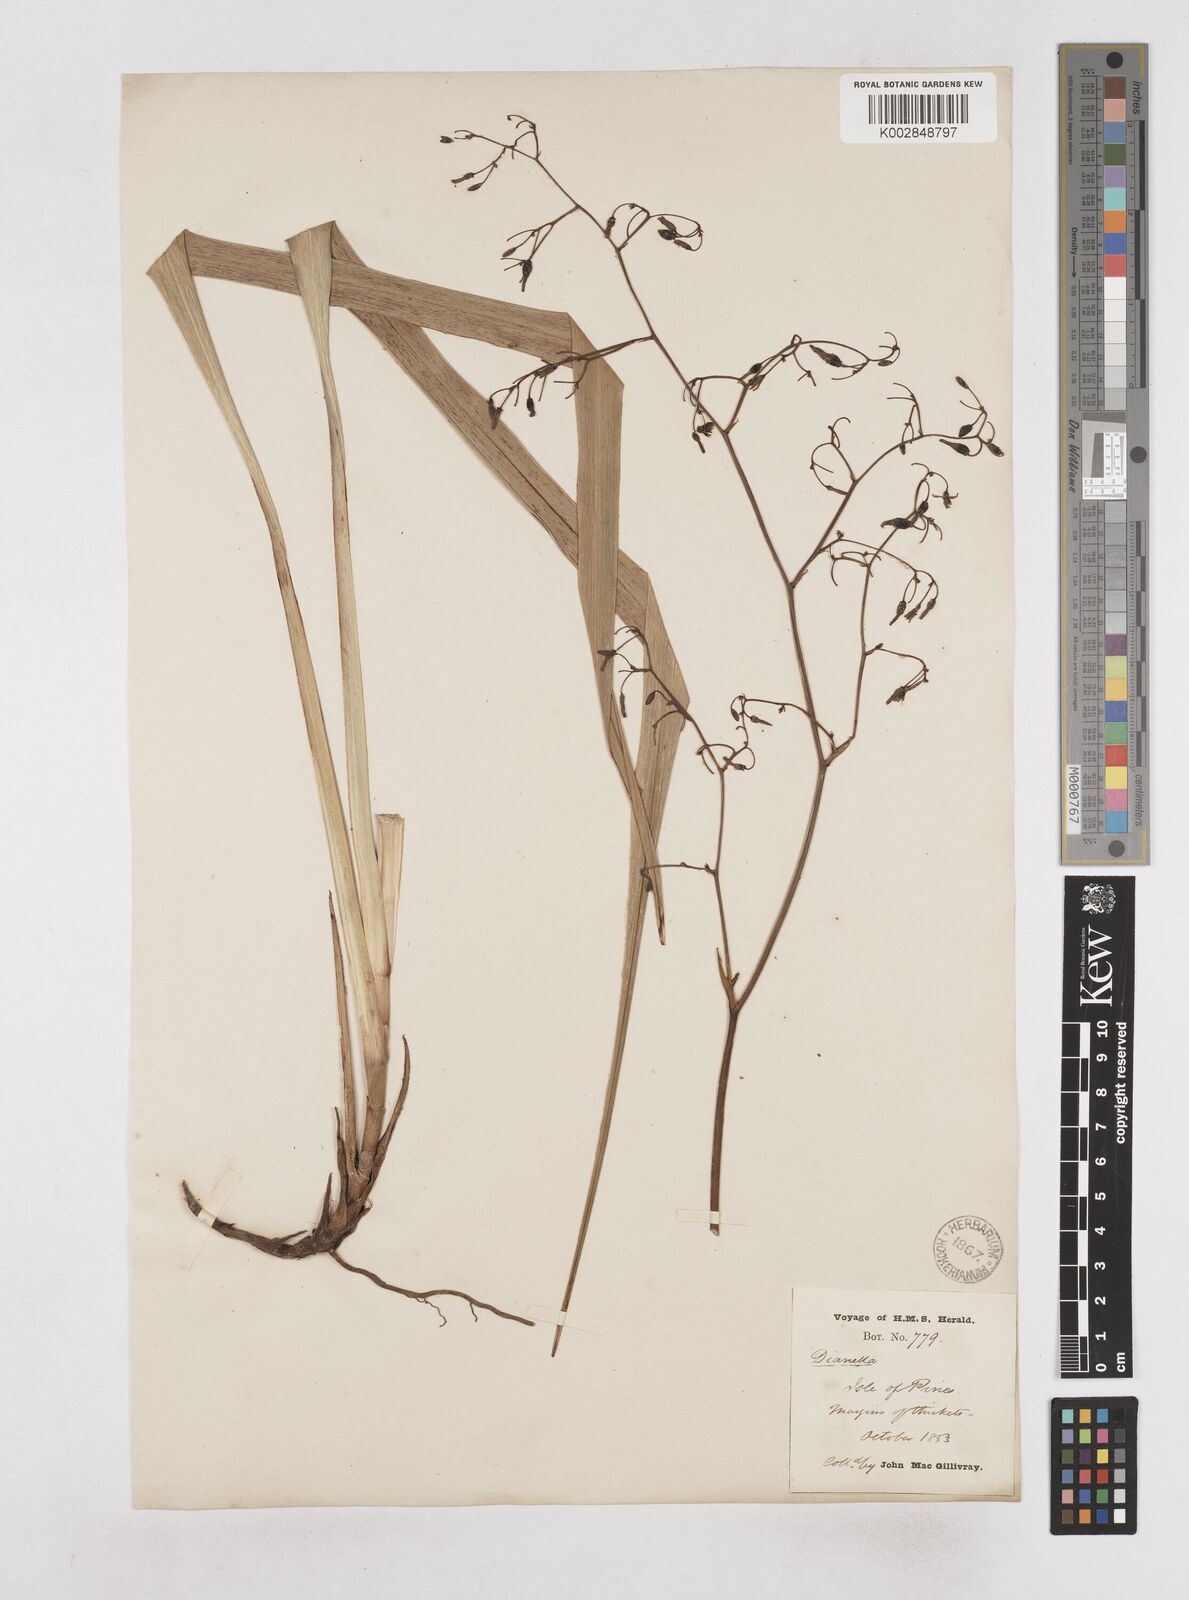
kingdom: Plantae
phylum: Tracheophyta
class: Liliopsida
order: Asparagales
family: Asphodelaceae
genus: Dianella
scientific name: Dianella adenanthera
